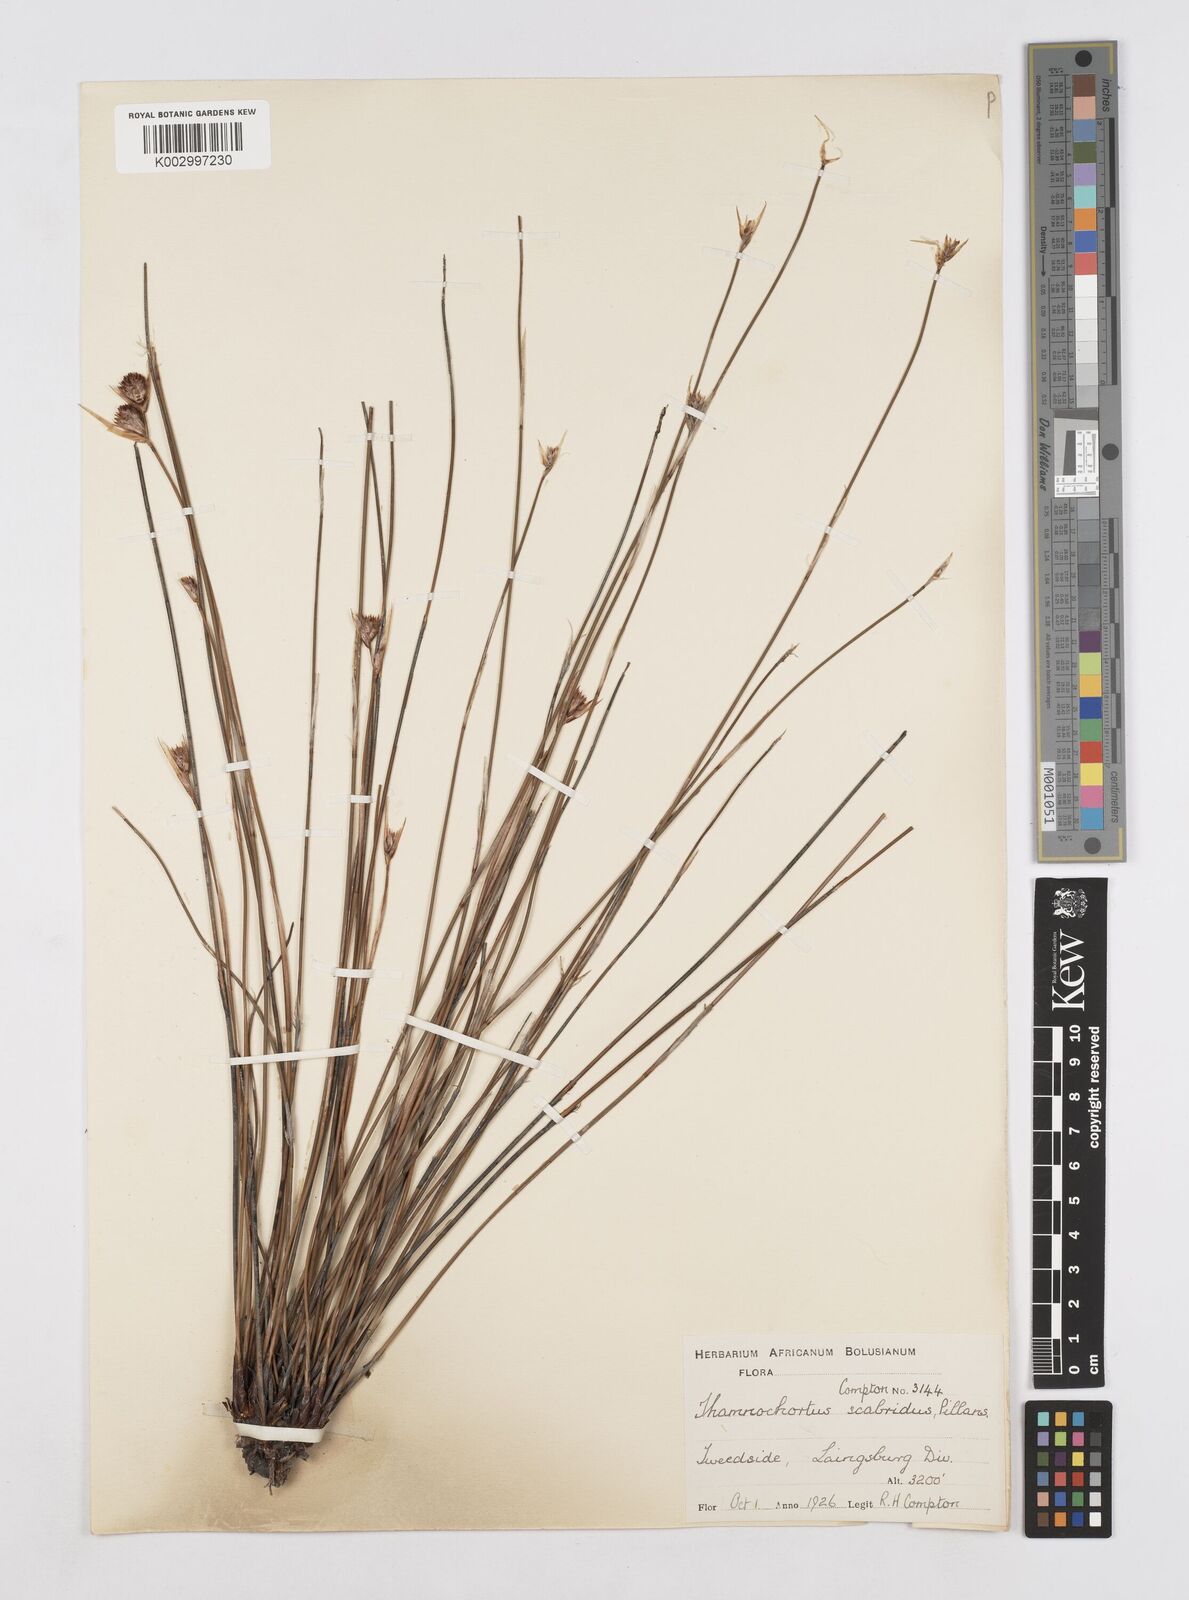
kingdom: Plantae
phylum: Tracheophyta
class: Liliopsida
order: Poales
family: Restionaceae
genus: Thamnochortus
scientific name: Thamnochortus scabridus
